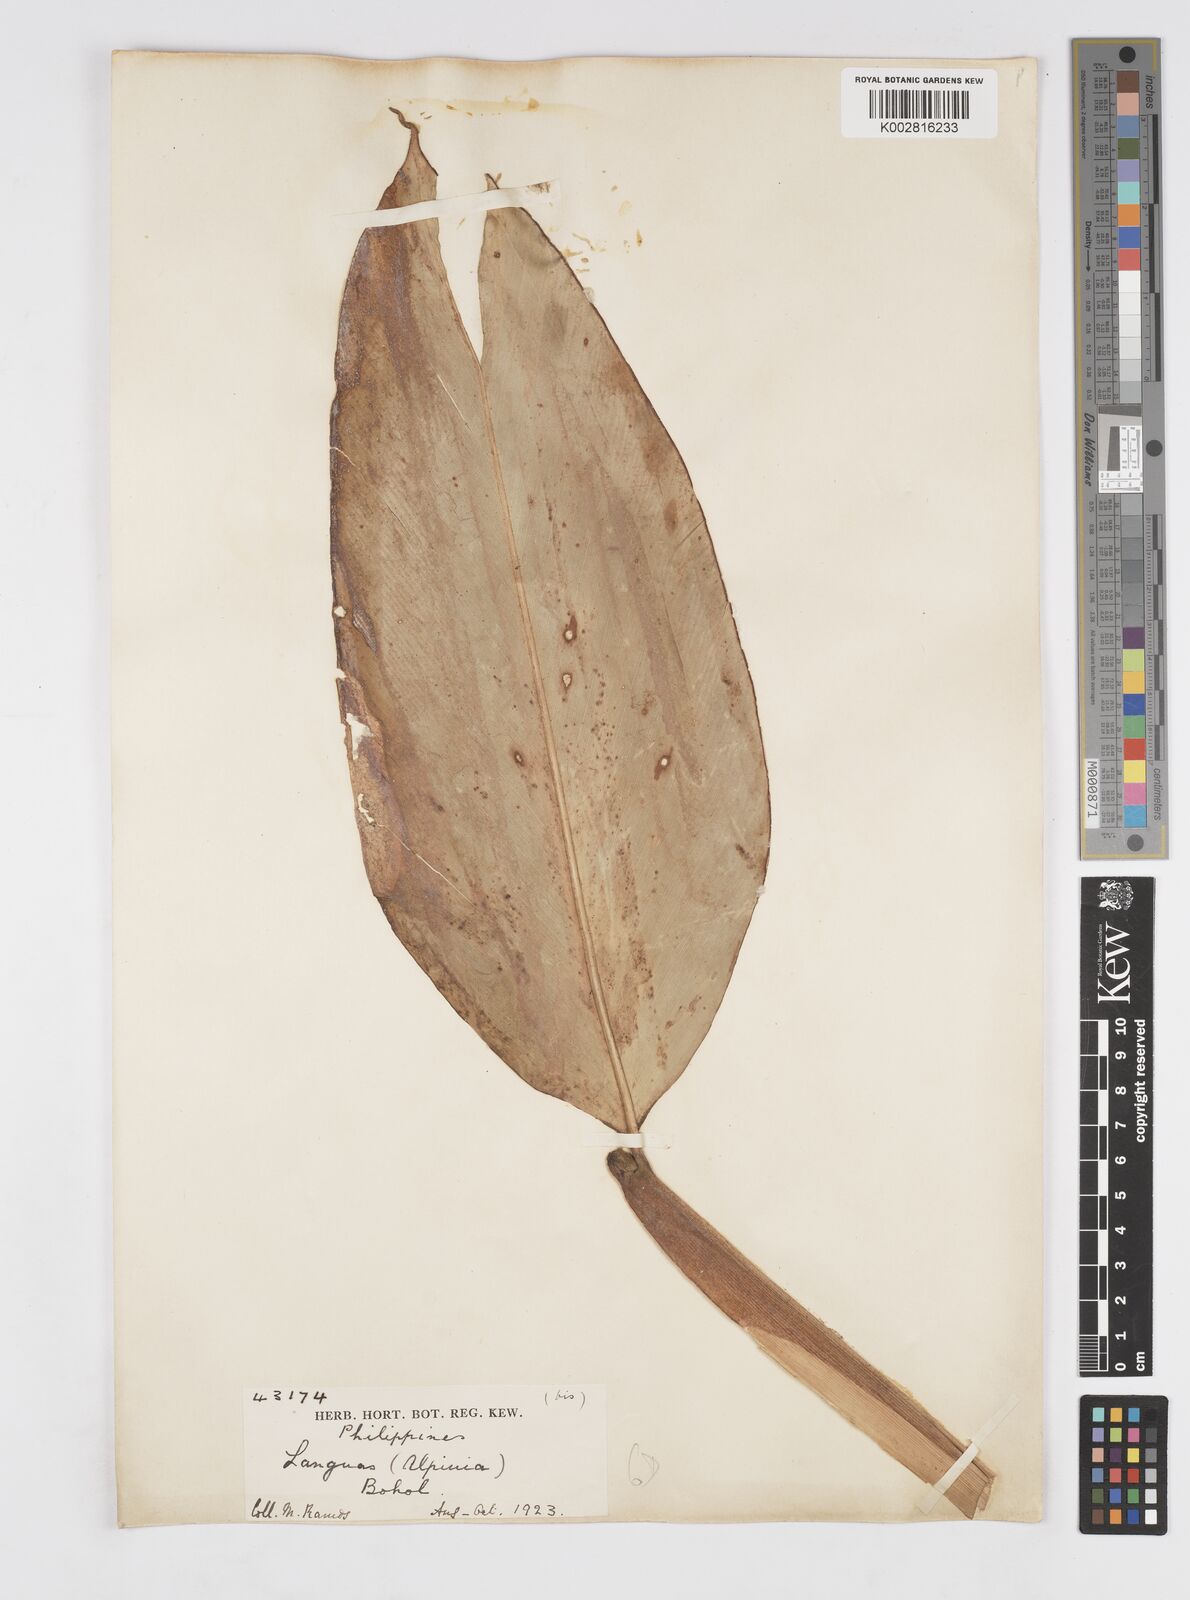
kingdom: Plantae
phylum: Tracheophyta
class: Liliopsida
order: Zingiberales
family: Zingiberaceae
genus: Alpinia
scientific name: Alpinia penduliflora
